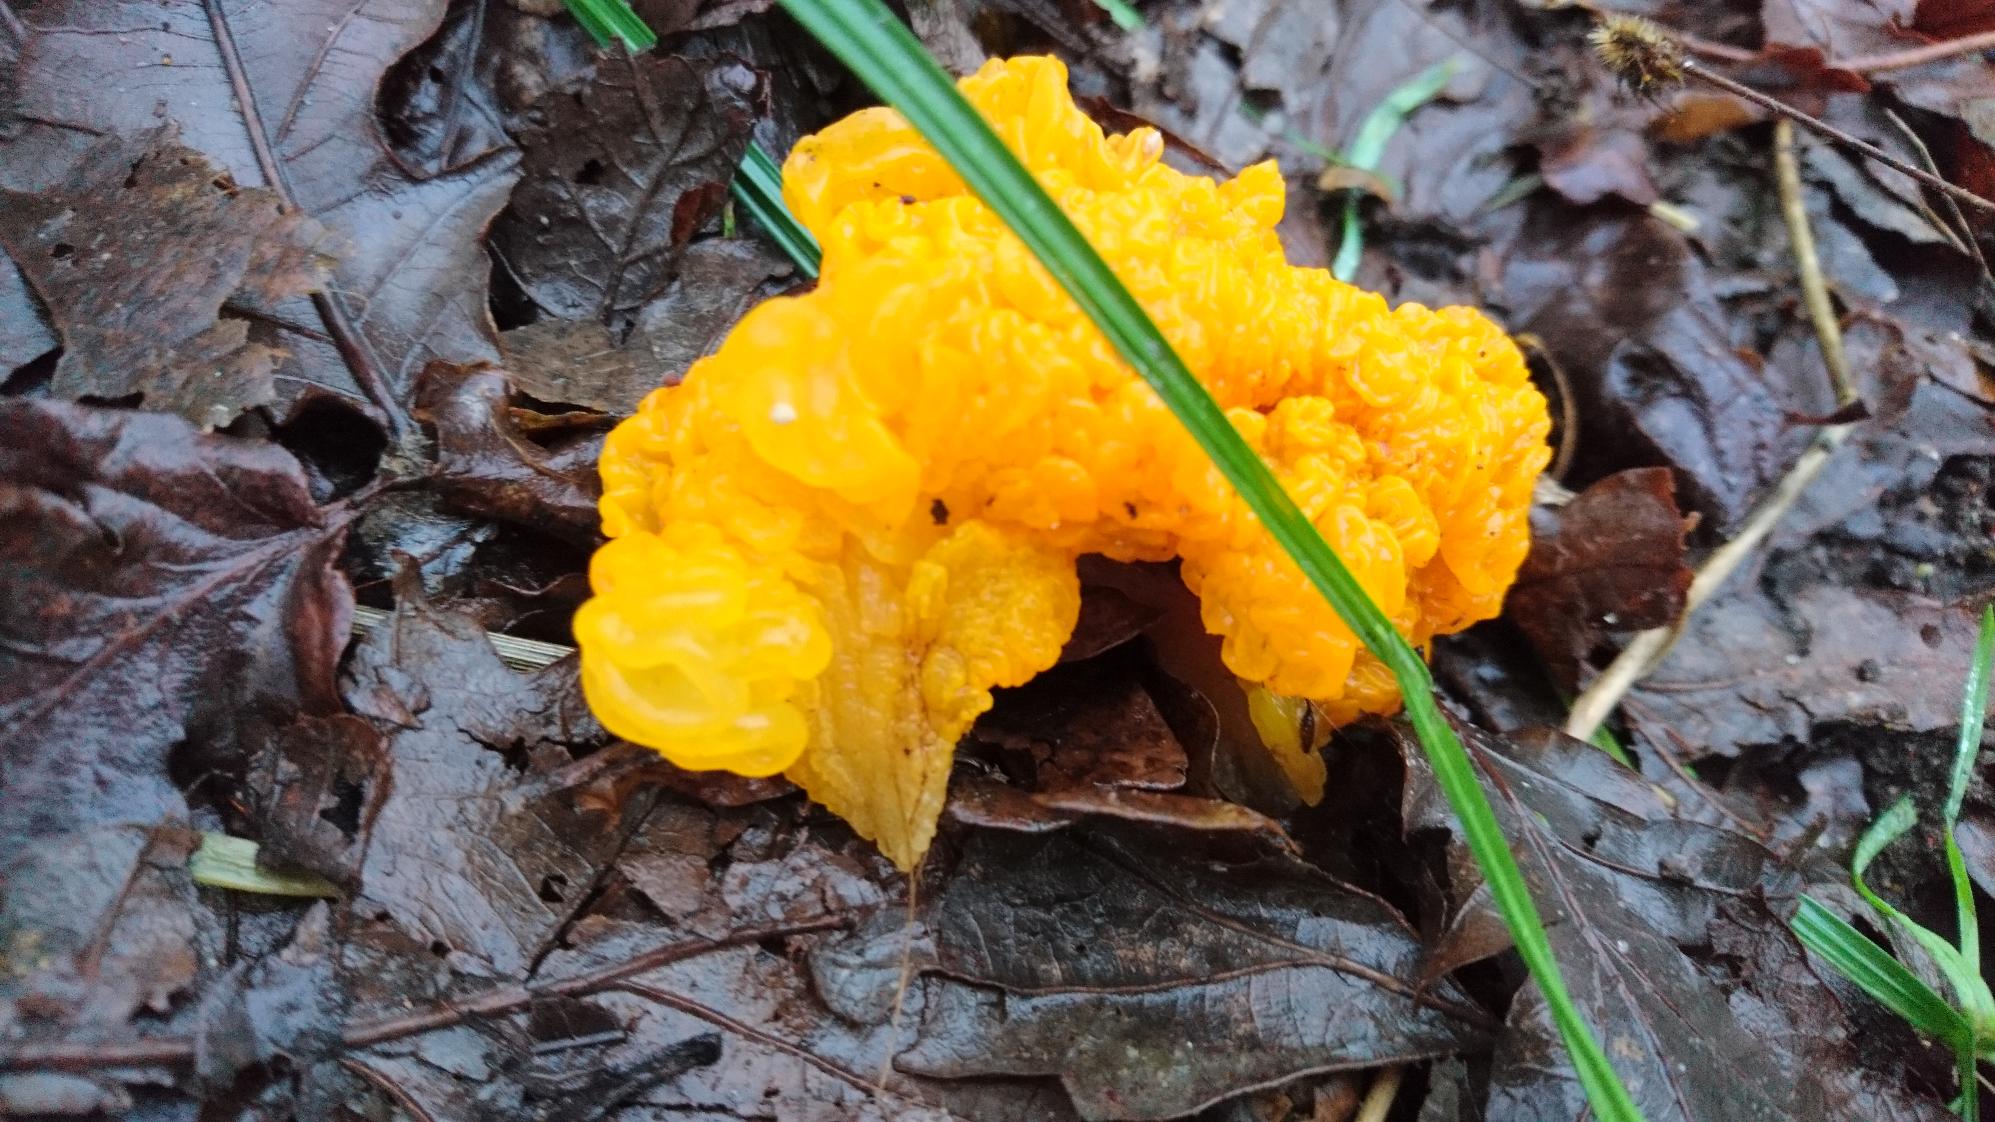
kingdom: Fungi
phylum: Basidiomycota
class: Tremellomycetes
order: Tremellales
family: Tremellaceae
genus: Tremella
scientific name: Tremella mesenterica
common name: Gul bævresvamp
